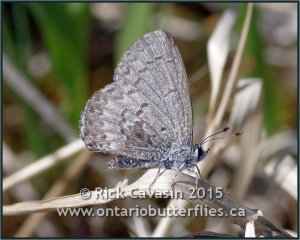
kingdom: Animalia
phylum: Arthropoda
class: Insecta
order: Lepidoptera
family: Lycaenidae
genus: Celastrina
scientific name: Celastrina lucia
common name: Northern Spring Azure
